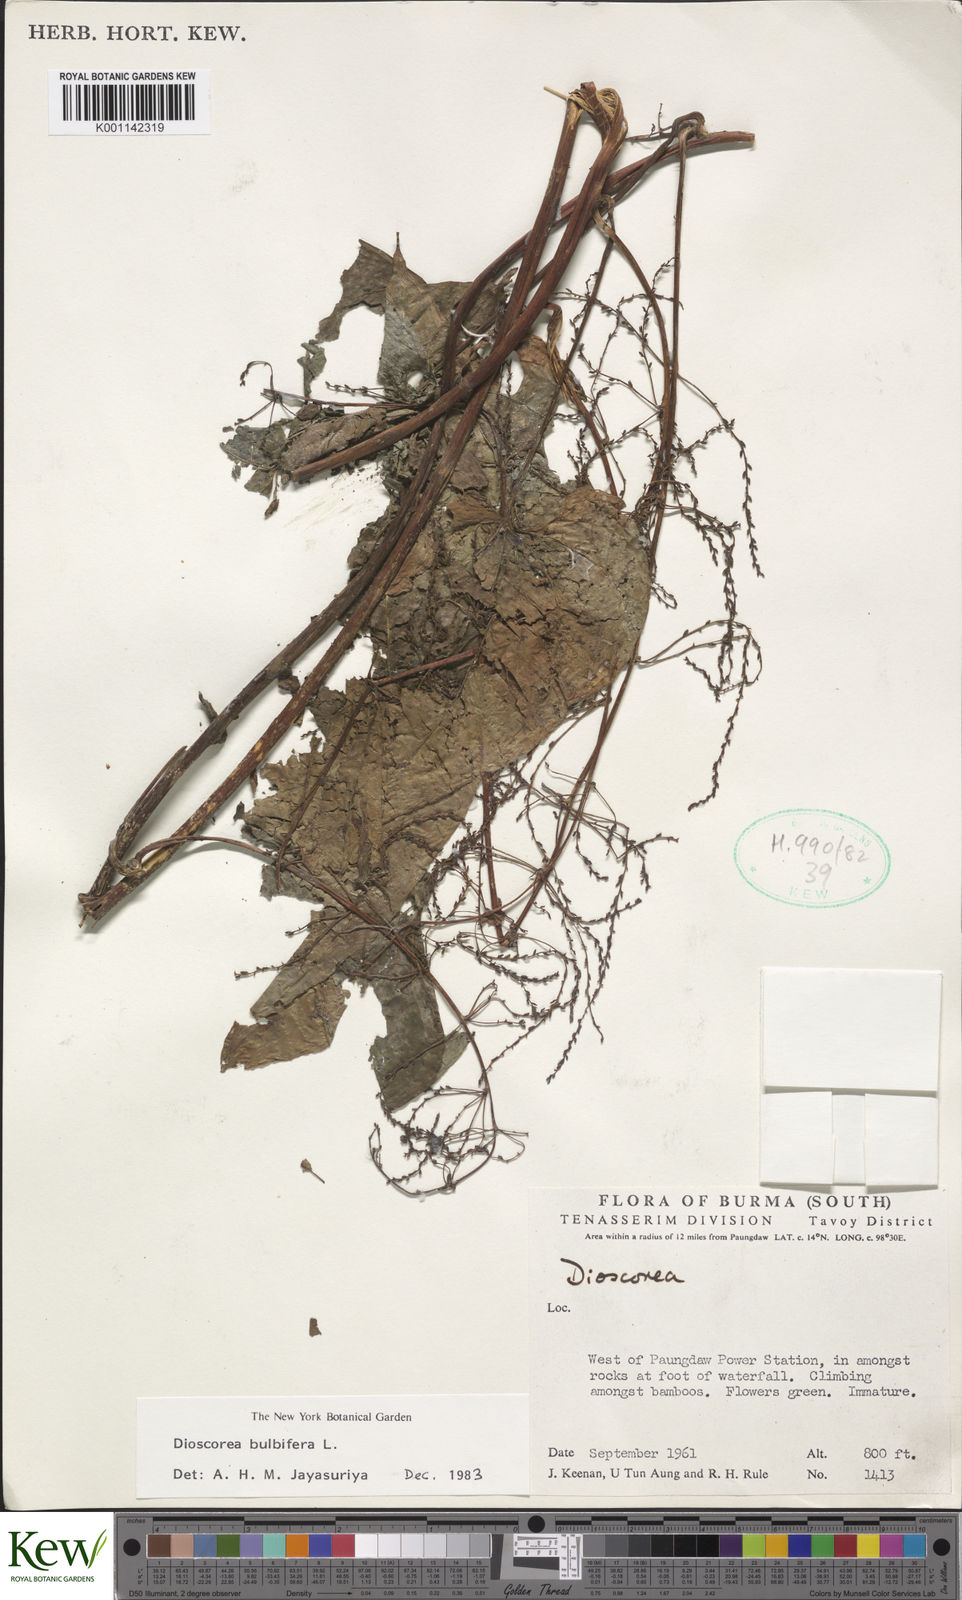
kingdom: Plantae
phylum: Tracheophyta
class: Liliopsida
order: Dioscoreales
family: Dioscoreaceae
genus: Dioscorea
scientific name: Dioscorea bulbifera
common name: Air yam
